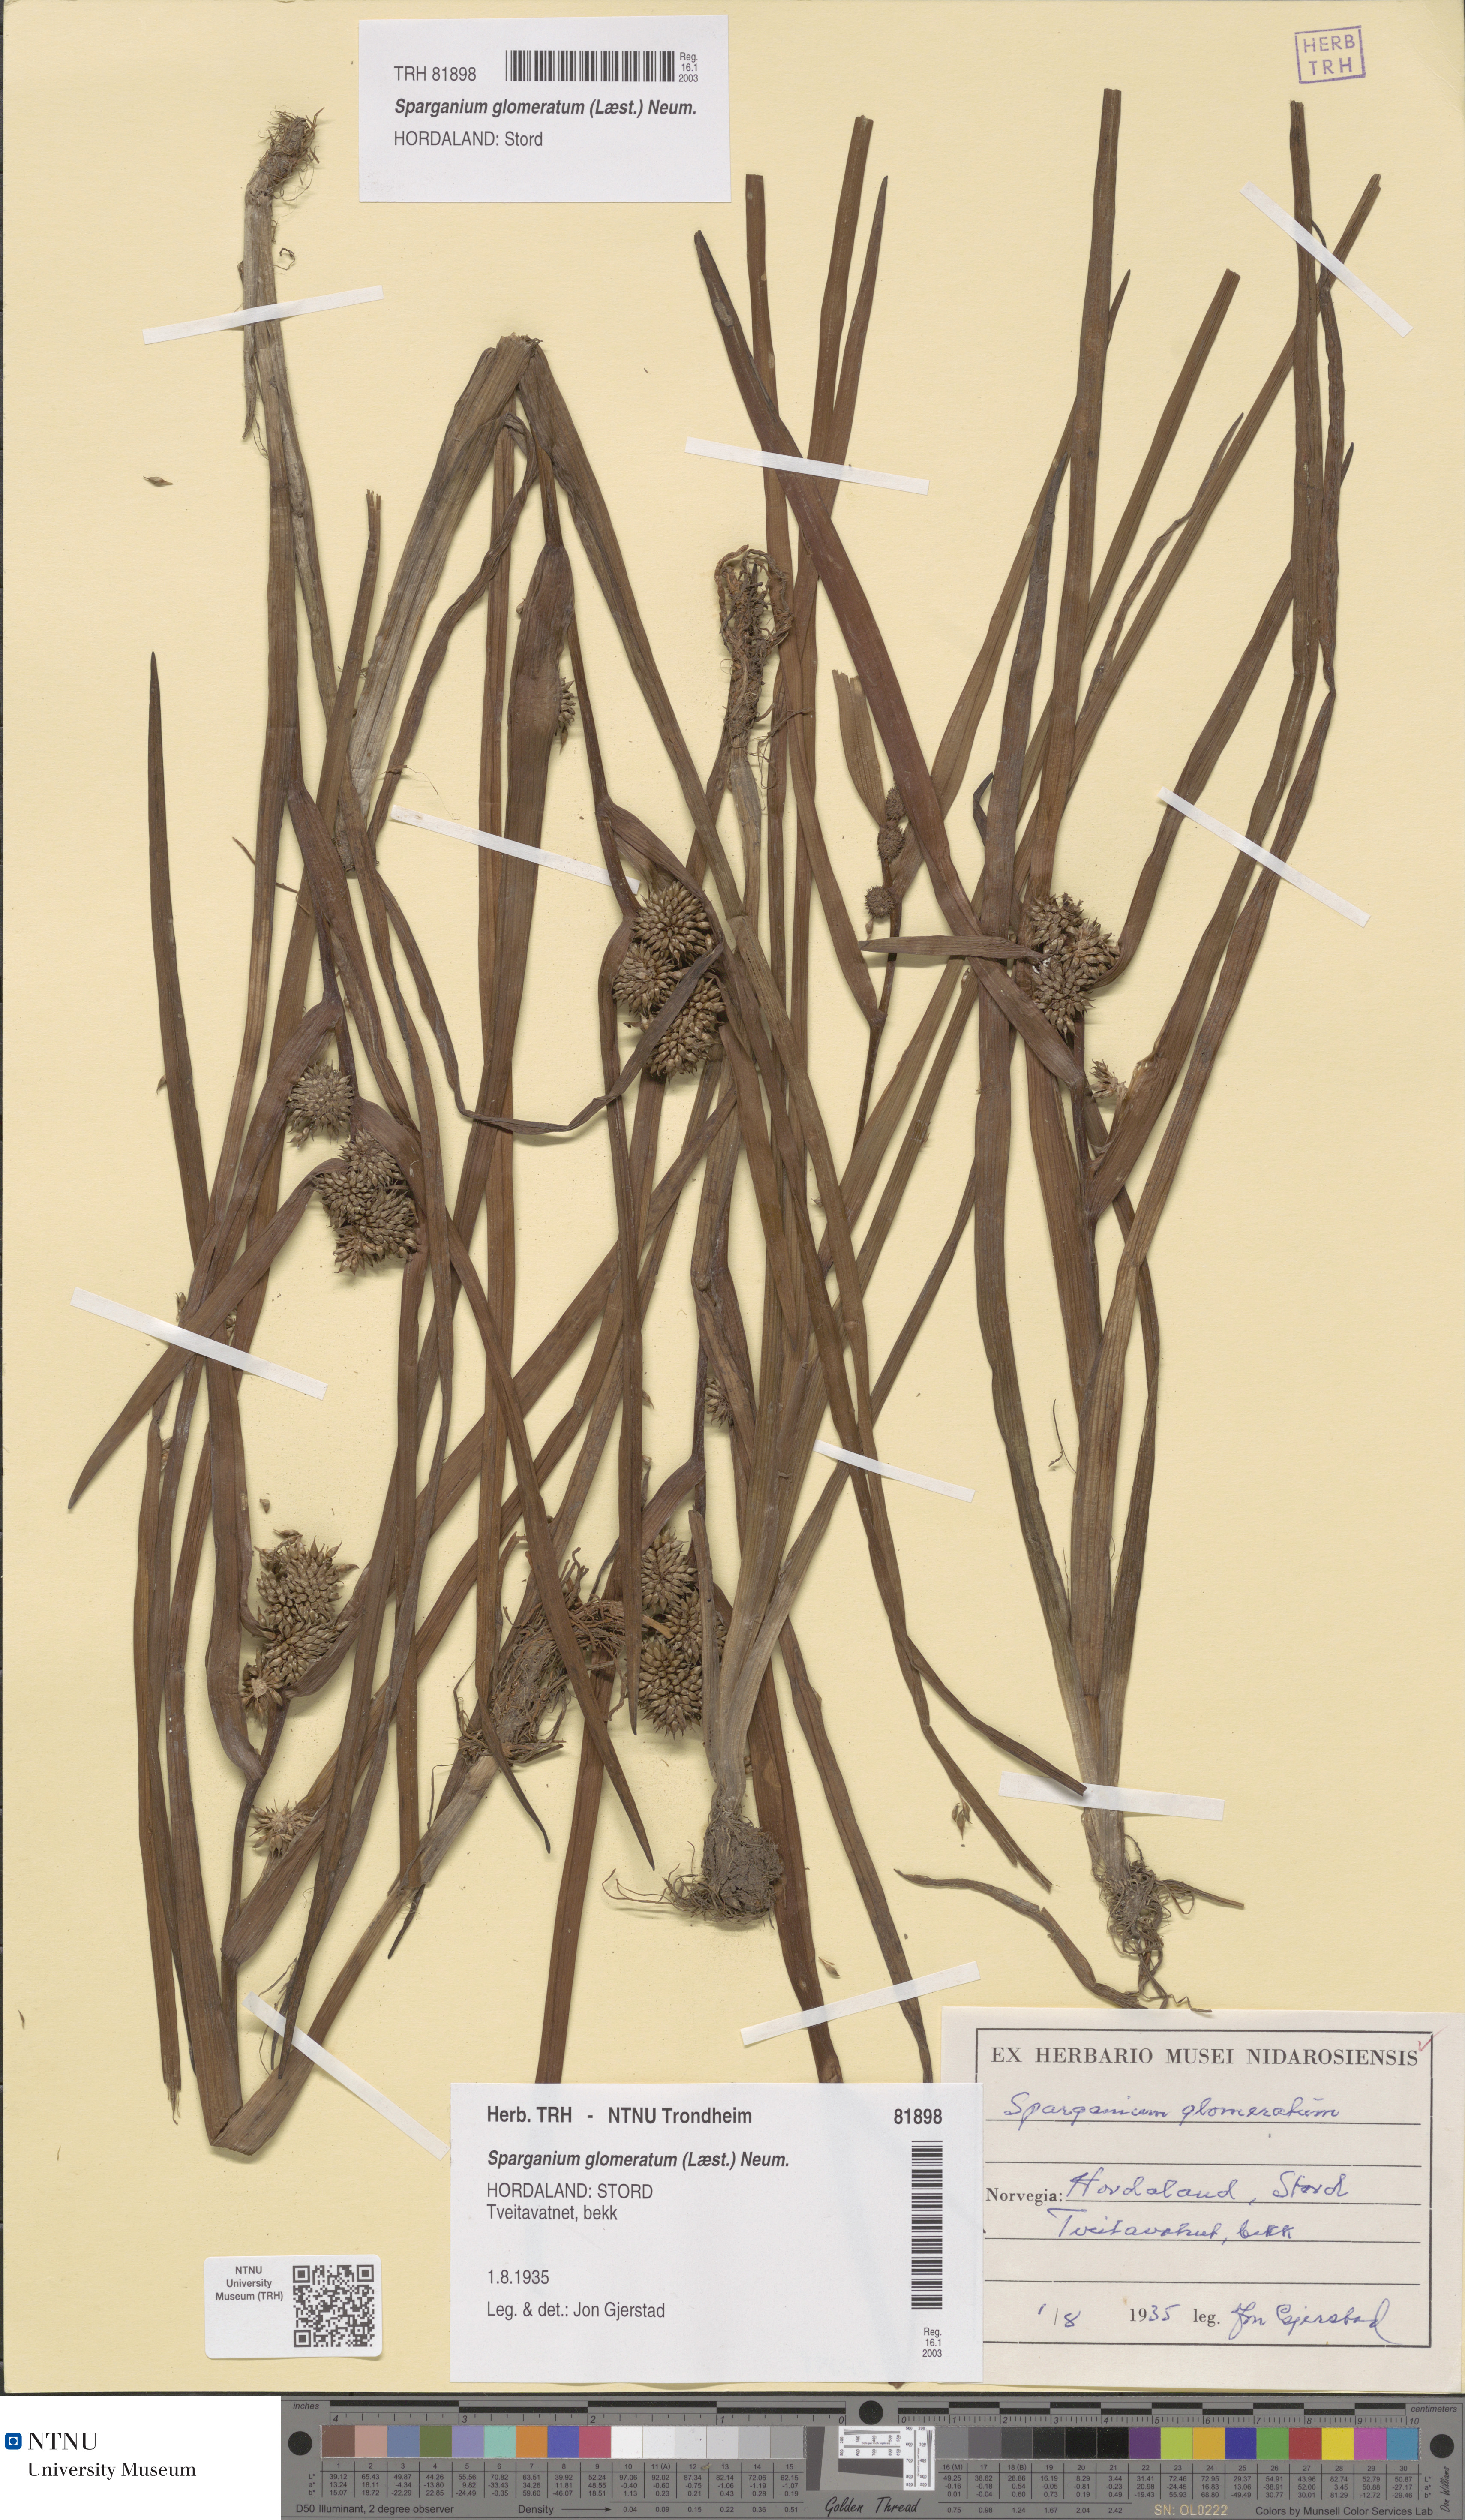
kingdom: Plantae
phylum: Tracheophyta
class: Liliopsida
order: Poales
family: Typhaceae
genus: Sparganium
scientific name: Sparganium glomeratum
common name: Clustered burreed
